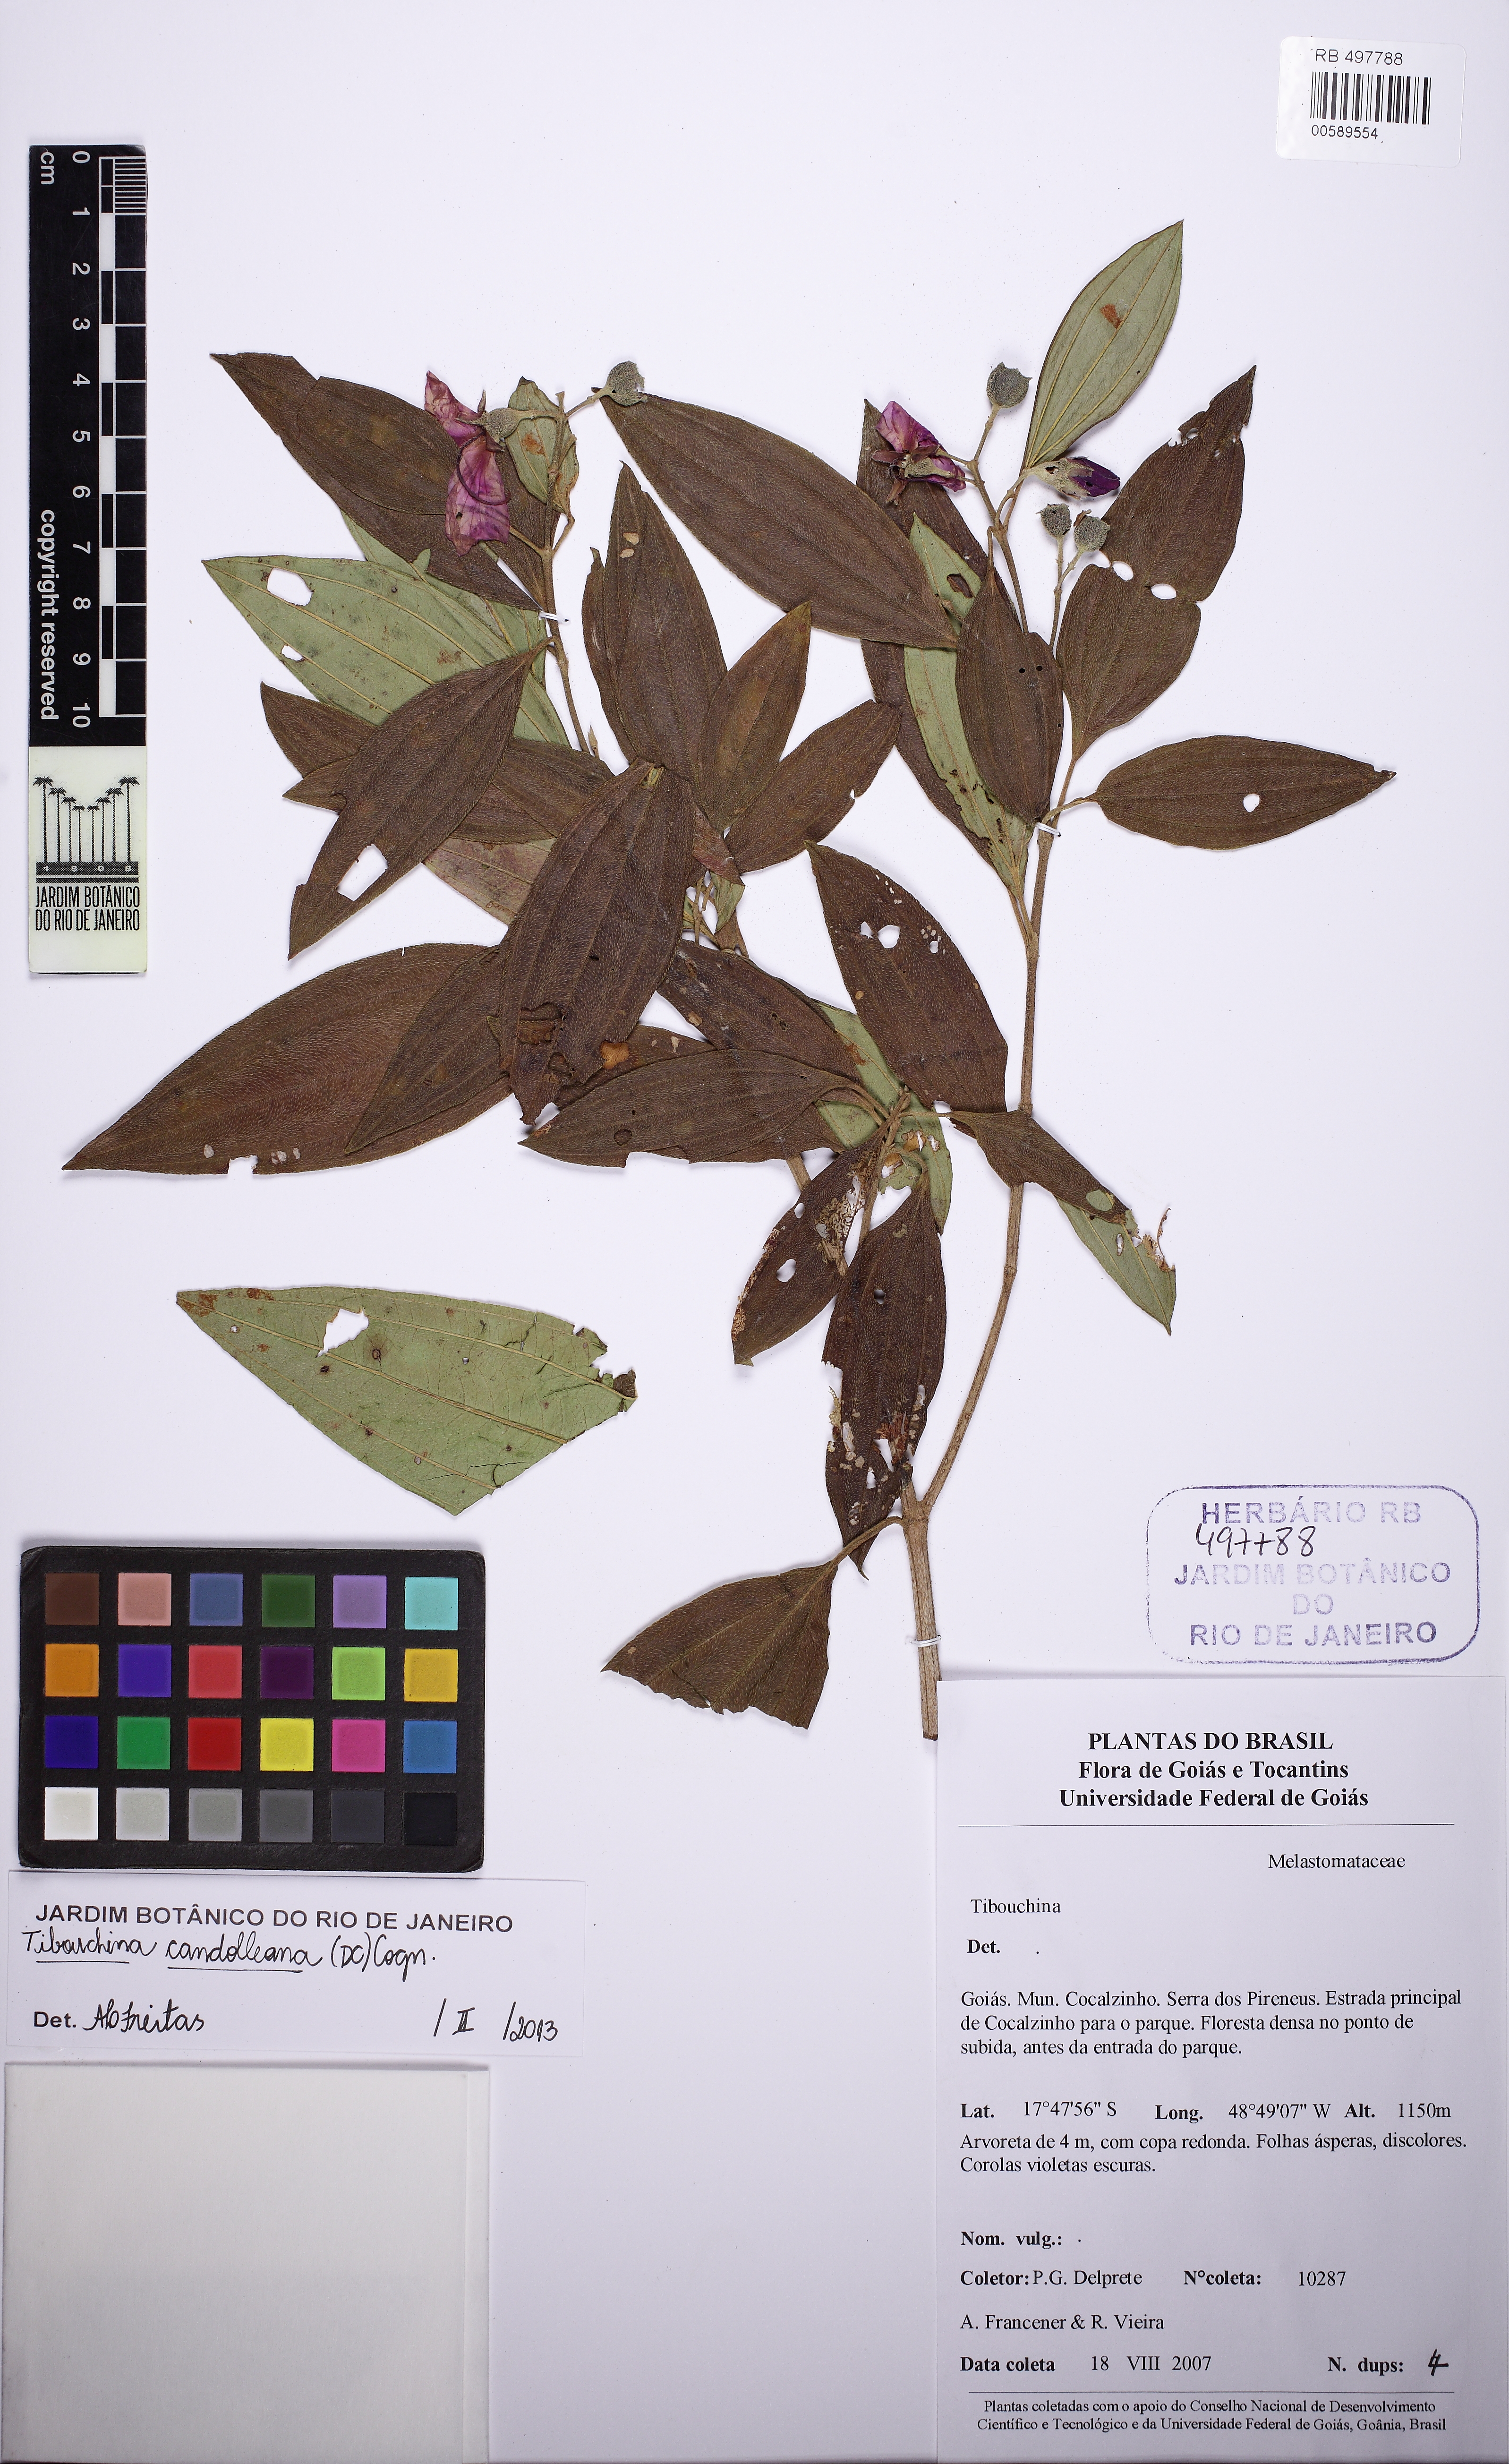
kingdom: Plantae
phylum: Tracheophyta
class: Magnoliopsida
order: Myrtales
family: Melastomataceae
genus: Pleroma
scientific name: Pleroma candolleanum
